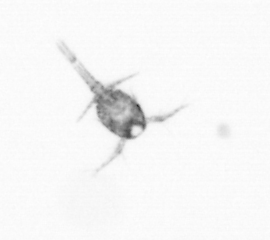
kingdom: Animalia
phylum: Arthropoda
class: Copepoda
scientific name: Copepoda
